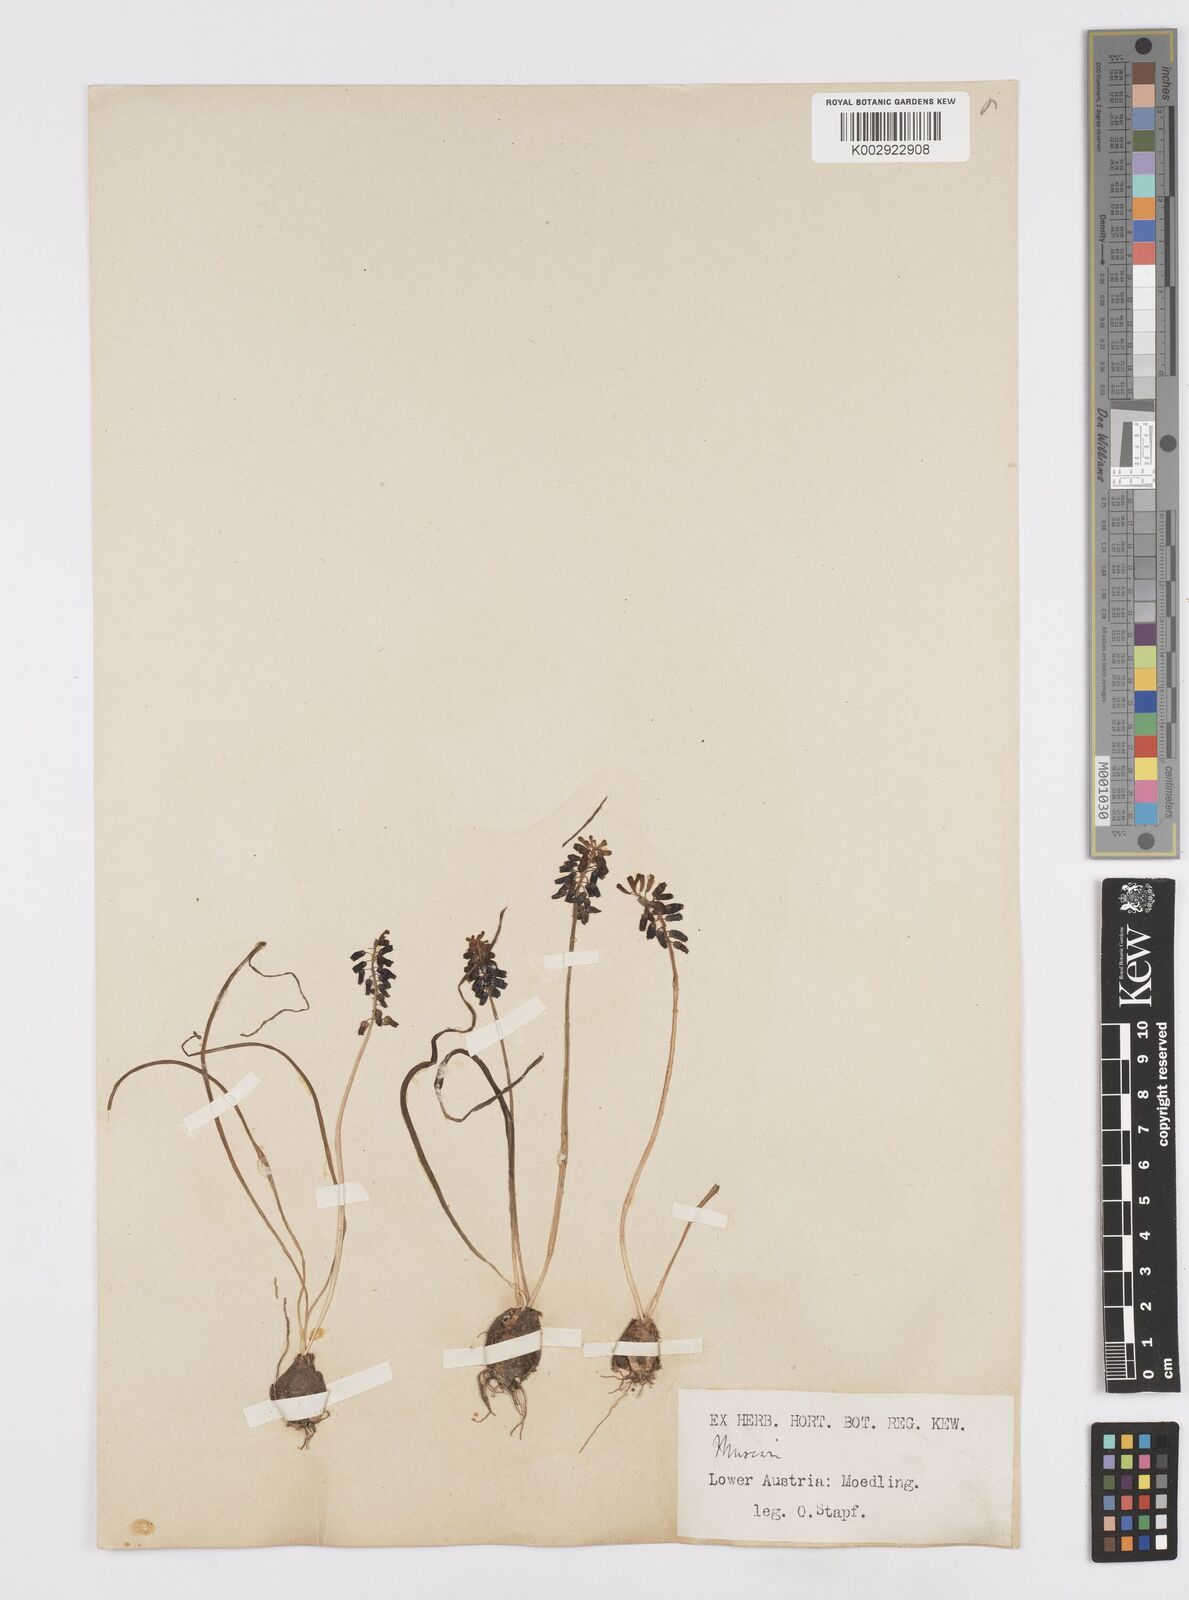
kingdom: Plantae
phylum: Tracheophyta
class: Liliopsida
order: Asparagales
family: Asparagaceae
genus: Muscarimia
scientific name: Muscarimia muscari
